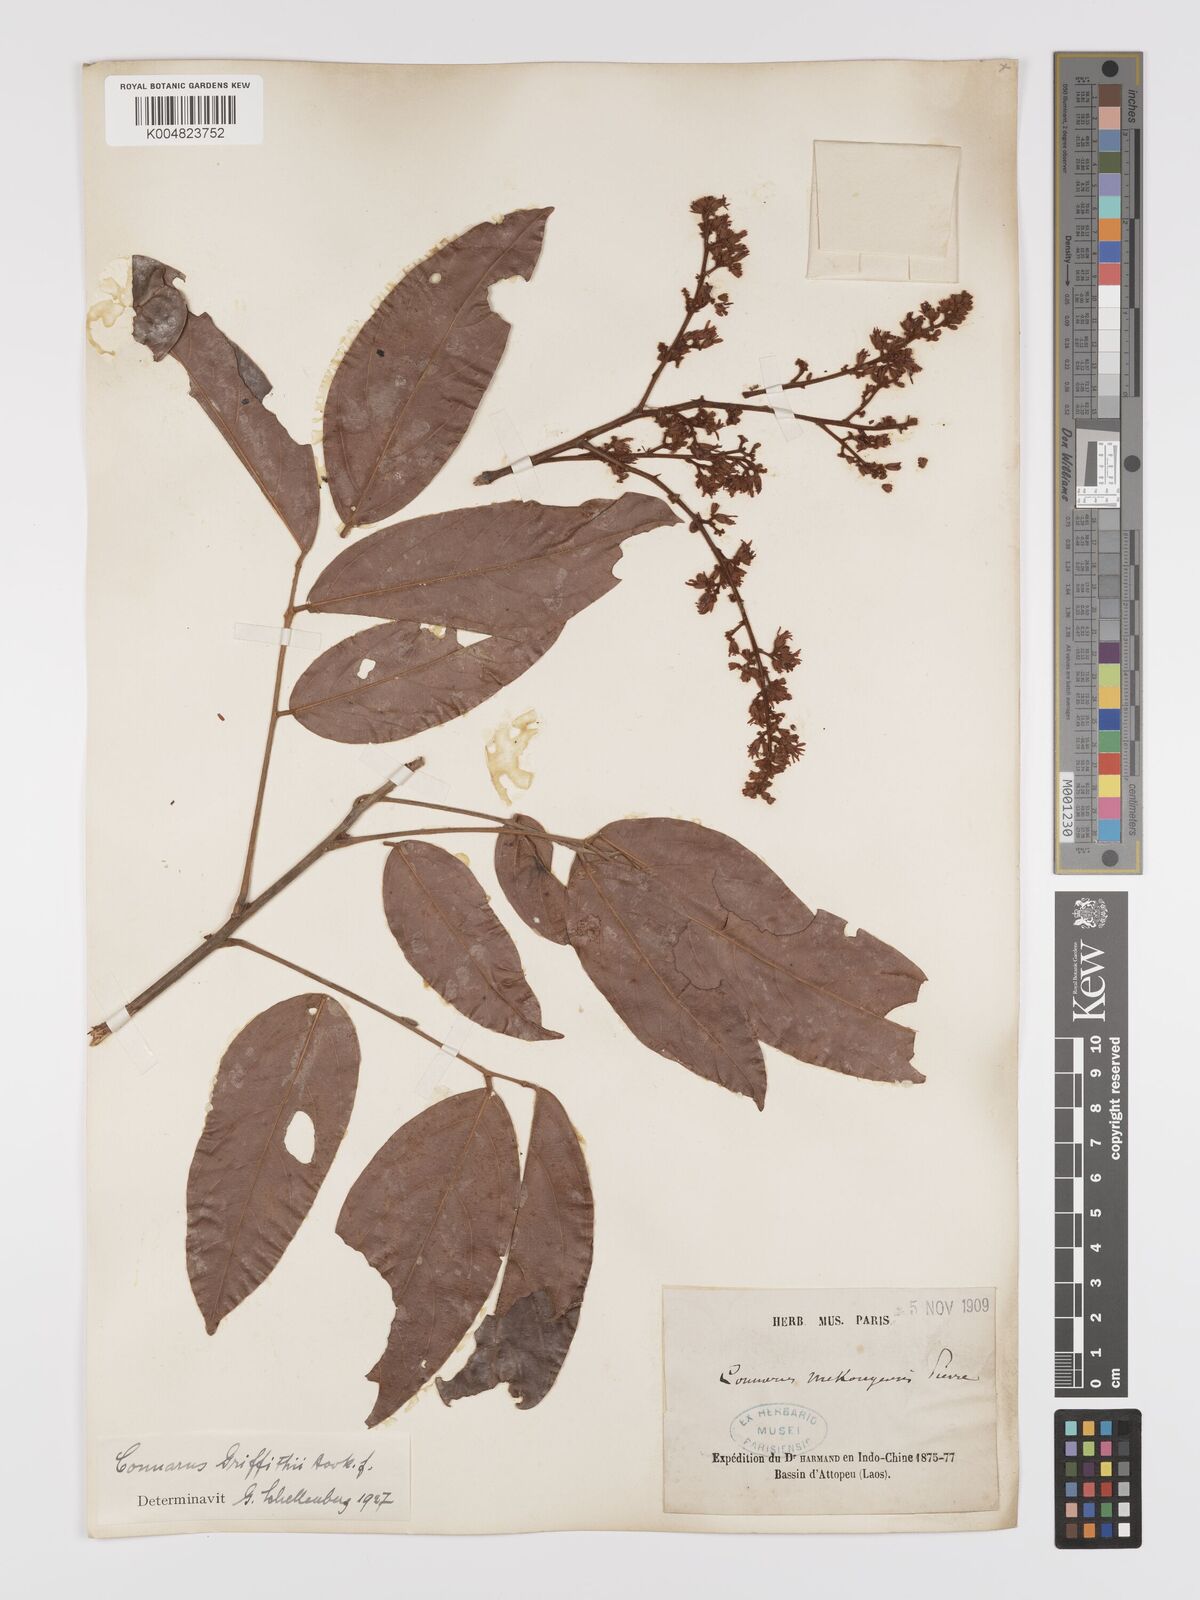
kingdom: Plantae
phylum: Tracheophyta
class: Magnoliopsida
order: Oxalidales
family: Connaraceae
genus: Connarus
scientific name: Connarus semidecandrus
